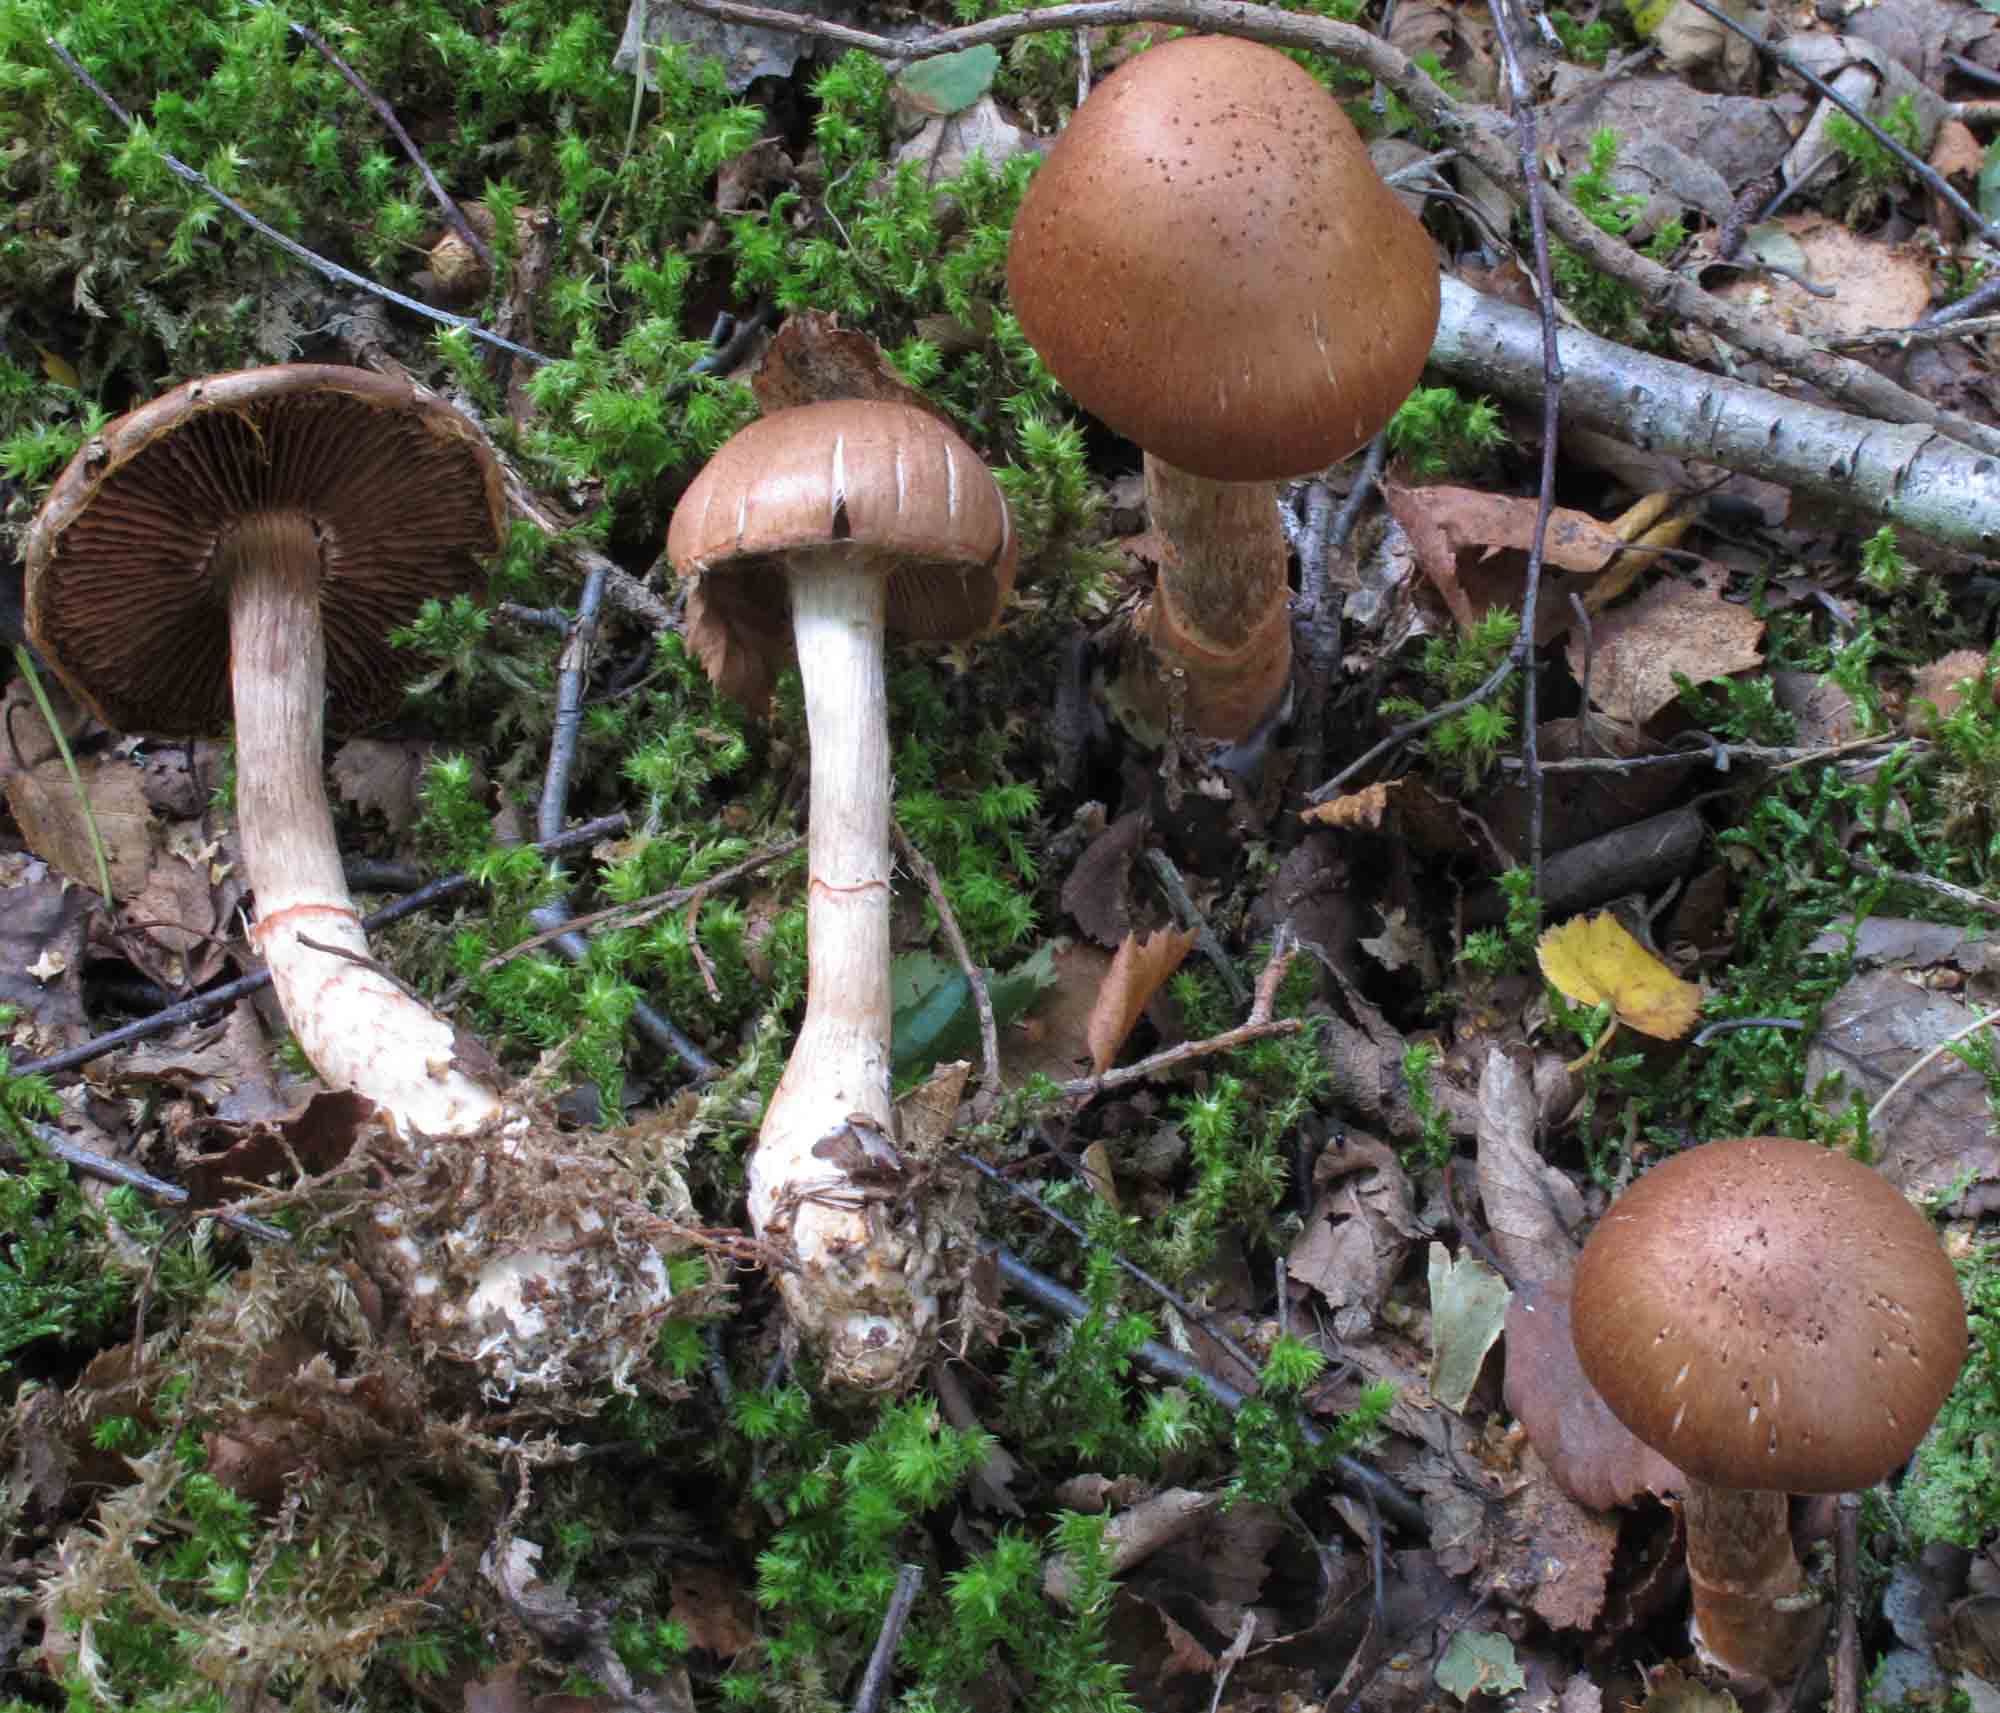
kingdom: Fungi
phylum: Basidiomycota
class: Agaricomycetes
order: Agaricales
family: Cortinariaceae
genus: Cortinarius
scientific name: Cortinarius armillatus
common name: cinnoberbæltet slørhat
